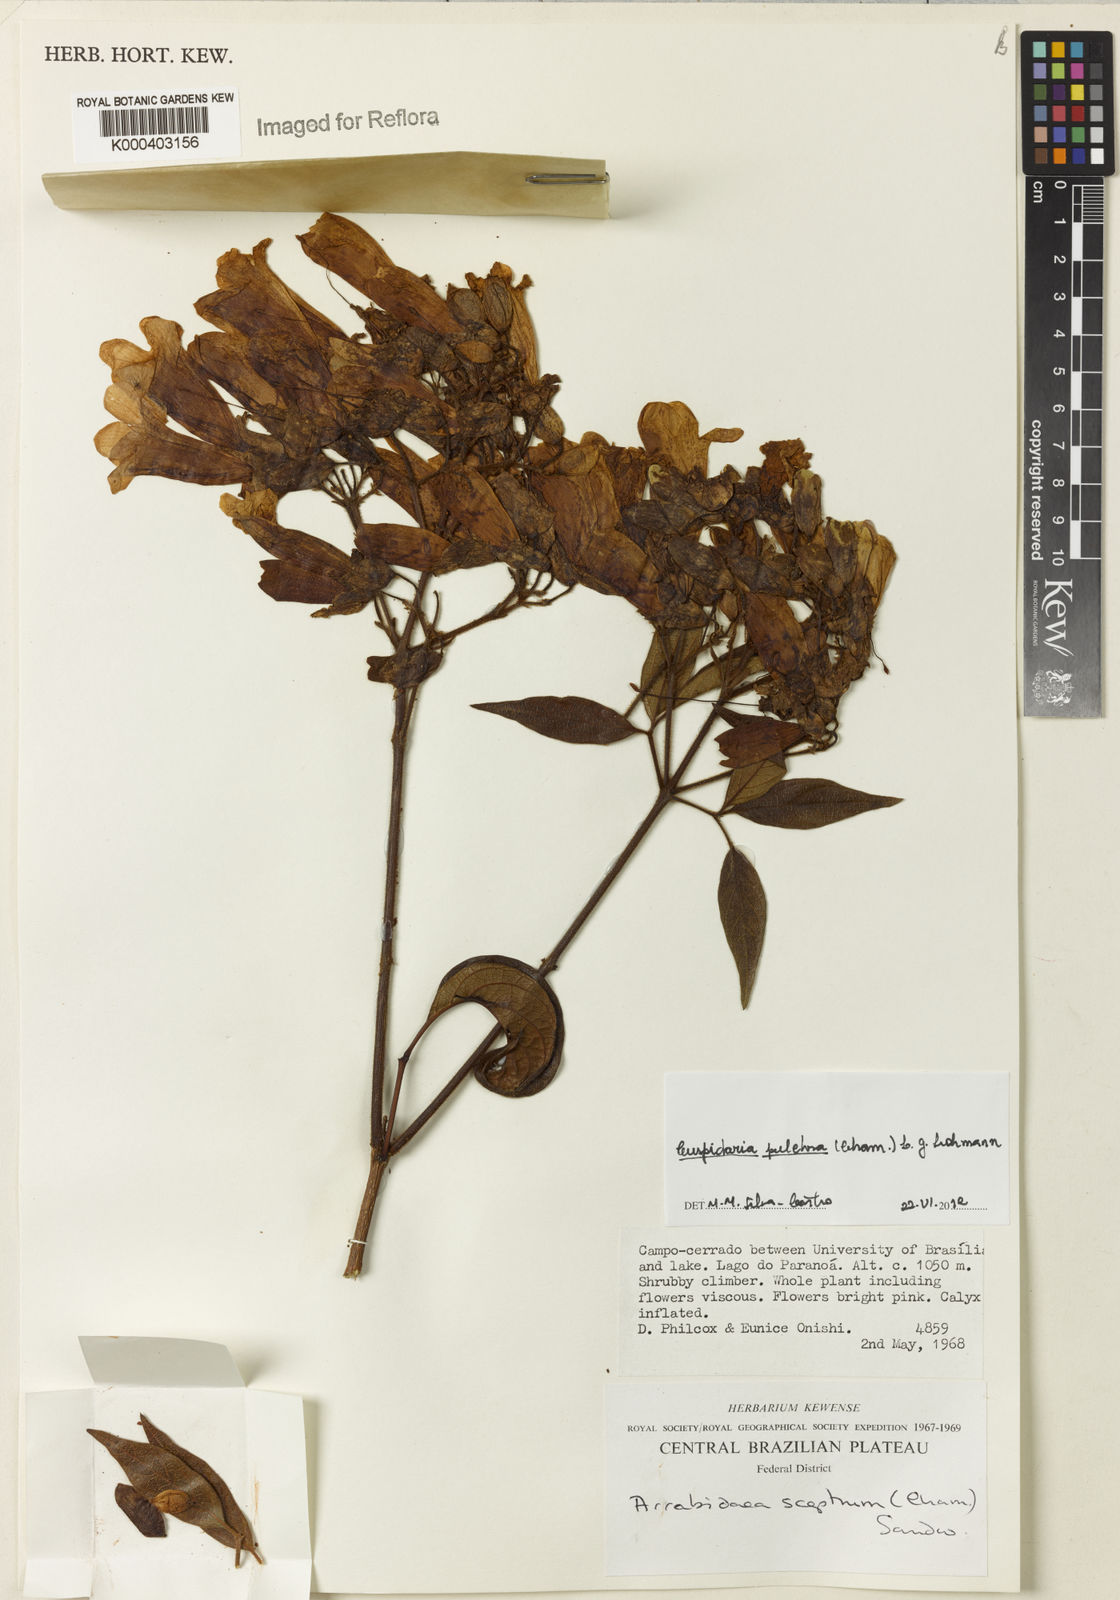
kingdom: Plantae
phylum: Tracheophyta
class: Magnoliopsida
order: Lamiales
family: Bignoniaceae
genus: Cuspidaria
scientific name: Cuspidaria sceptrum
